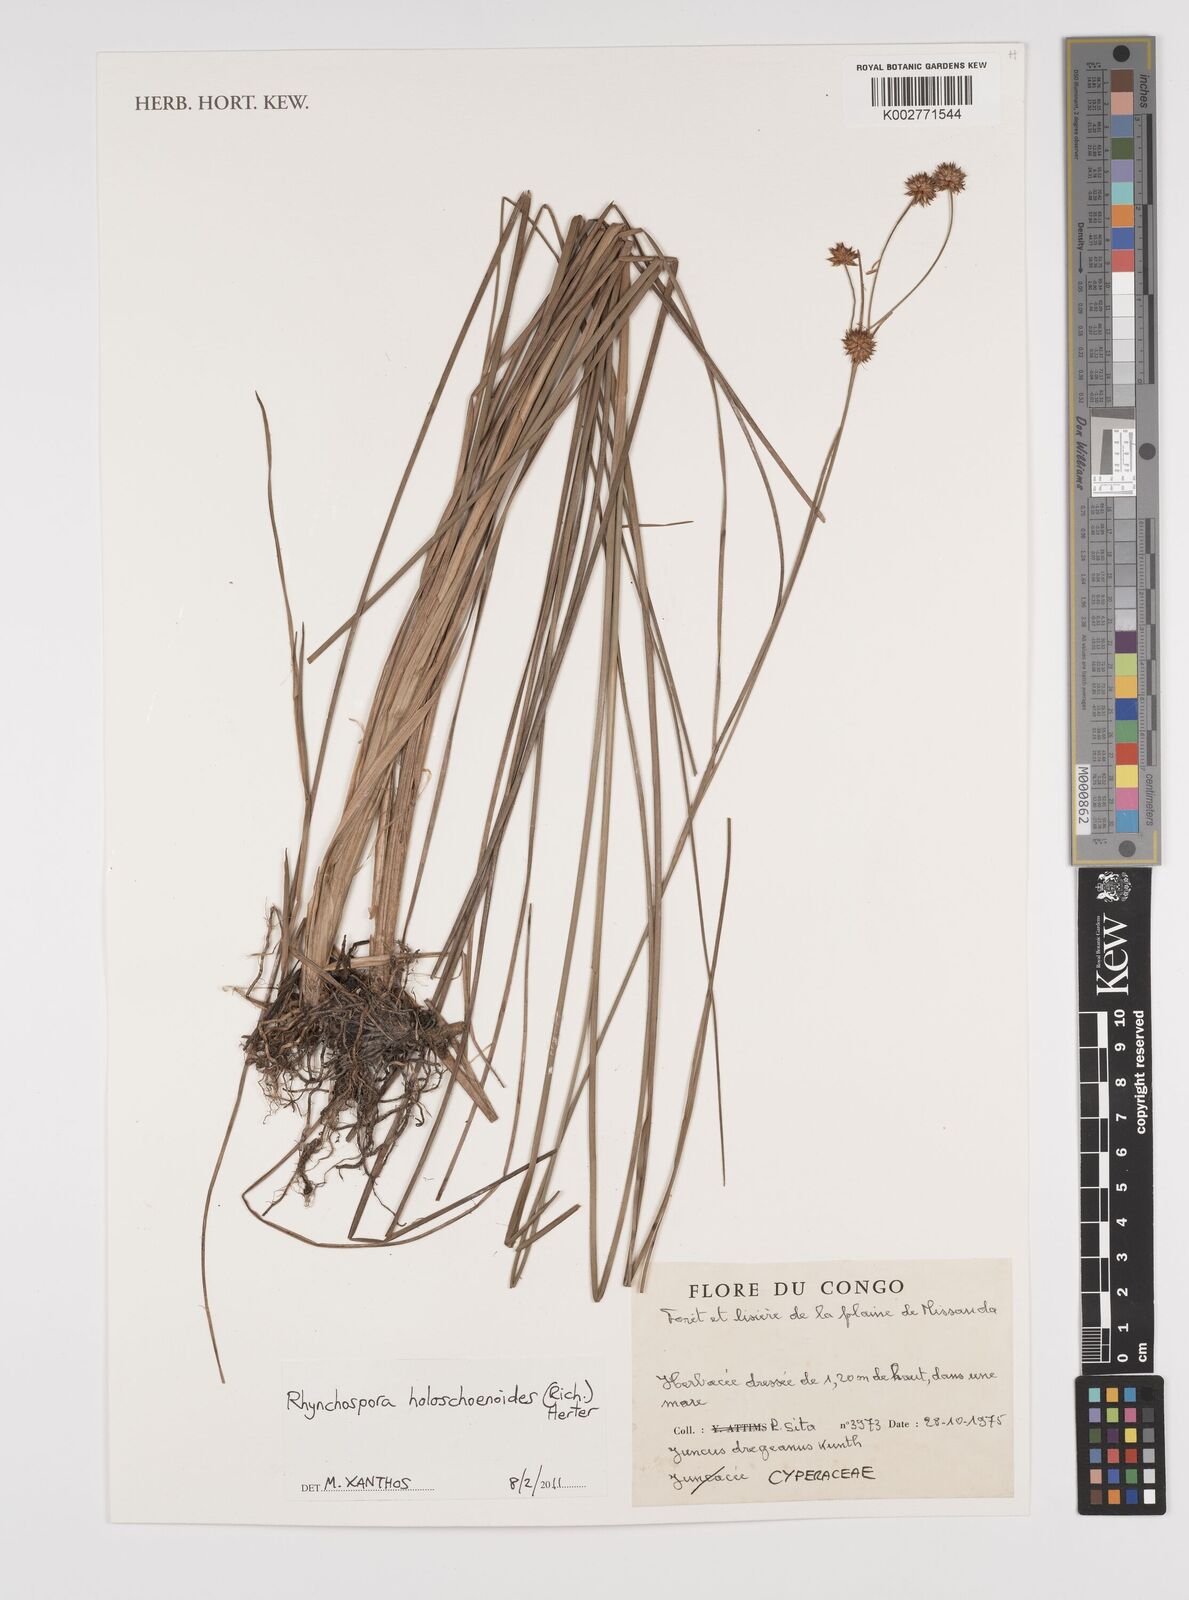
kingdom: Plantae
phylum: Tracheophyta
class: Liliopsida
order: Poales
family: Cyperaceae
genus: Rhynchospora
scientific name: Rhynchospora holoschoenoides
